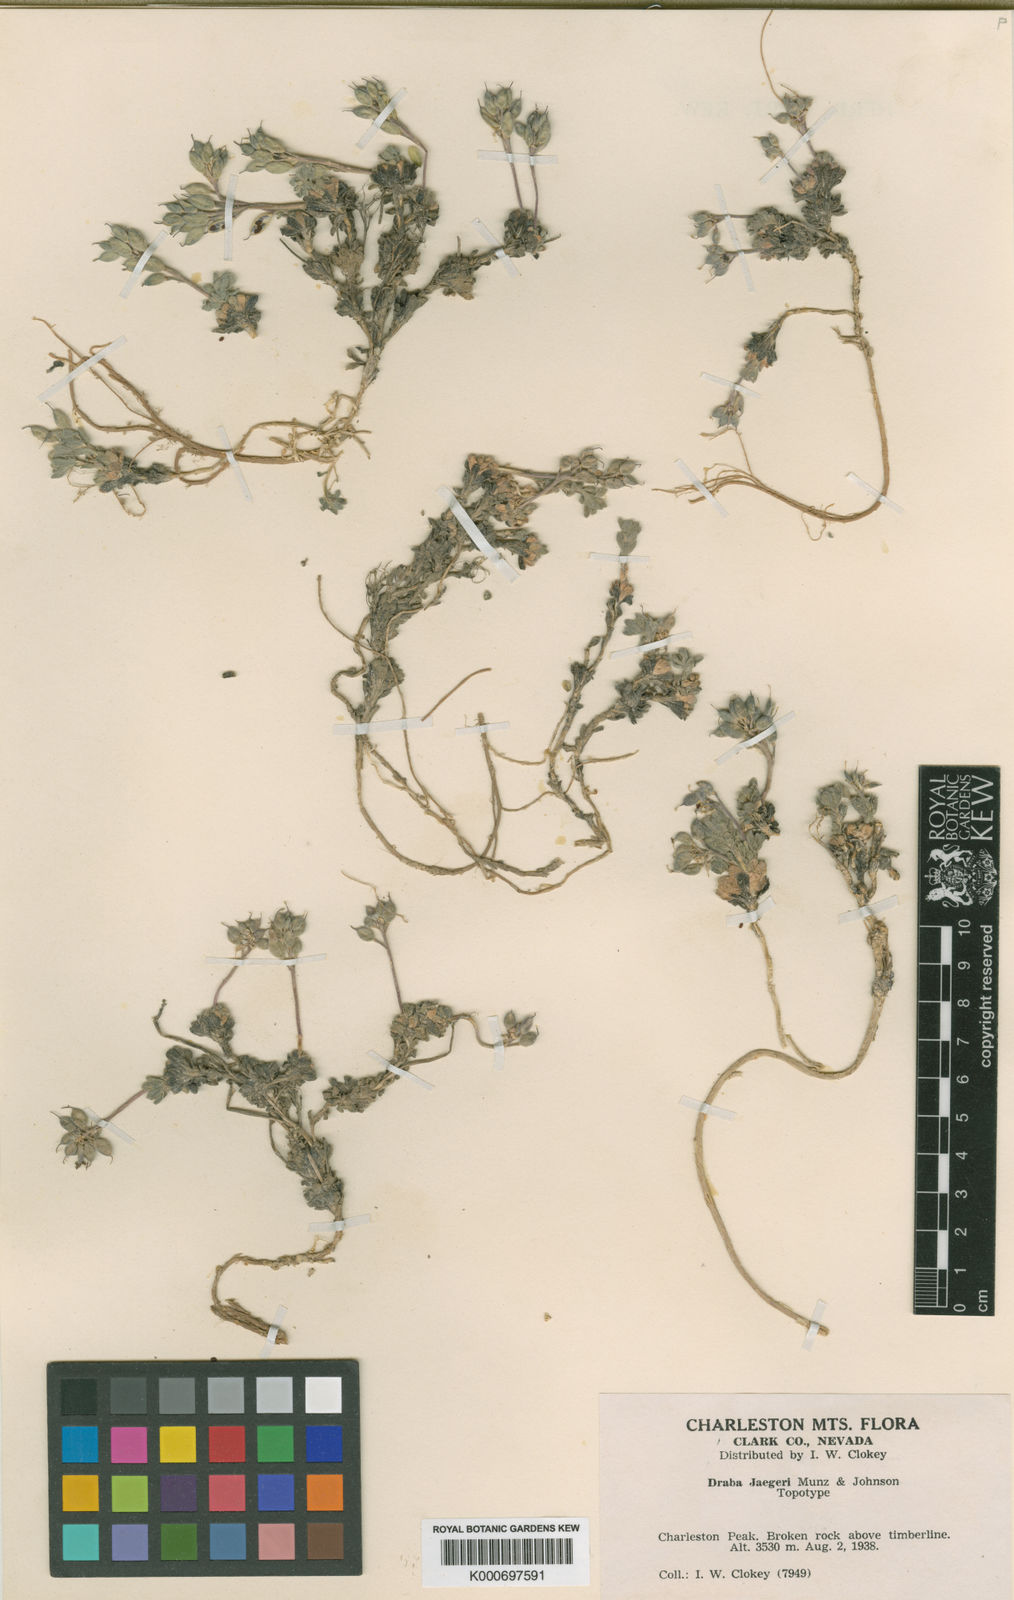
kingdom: Plantae
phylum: Tracheophyta
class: Magnoliopsida
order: Brassicales
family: Brassicaceae
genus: Draba
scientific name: Draba jaegeri
